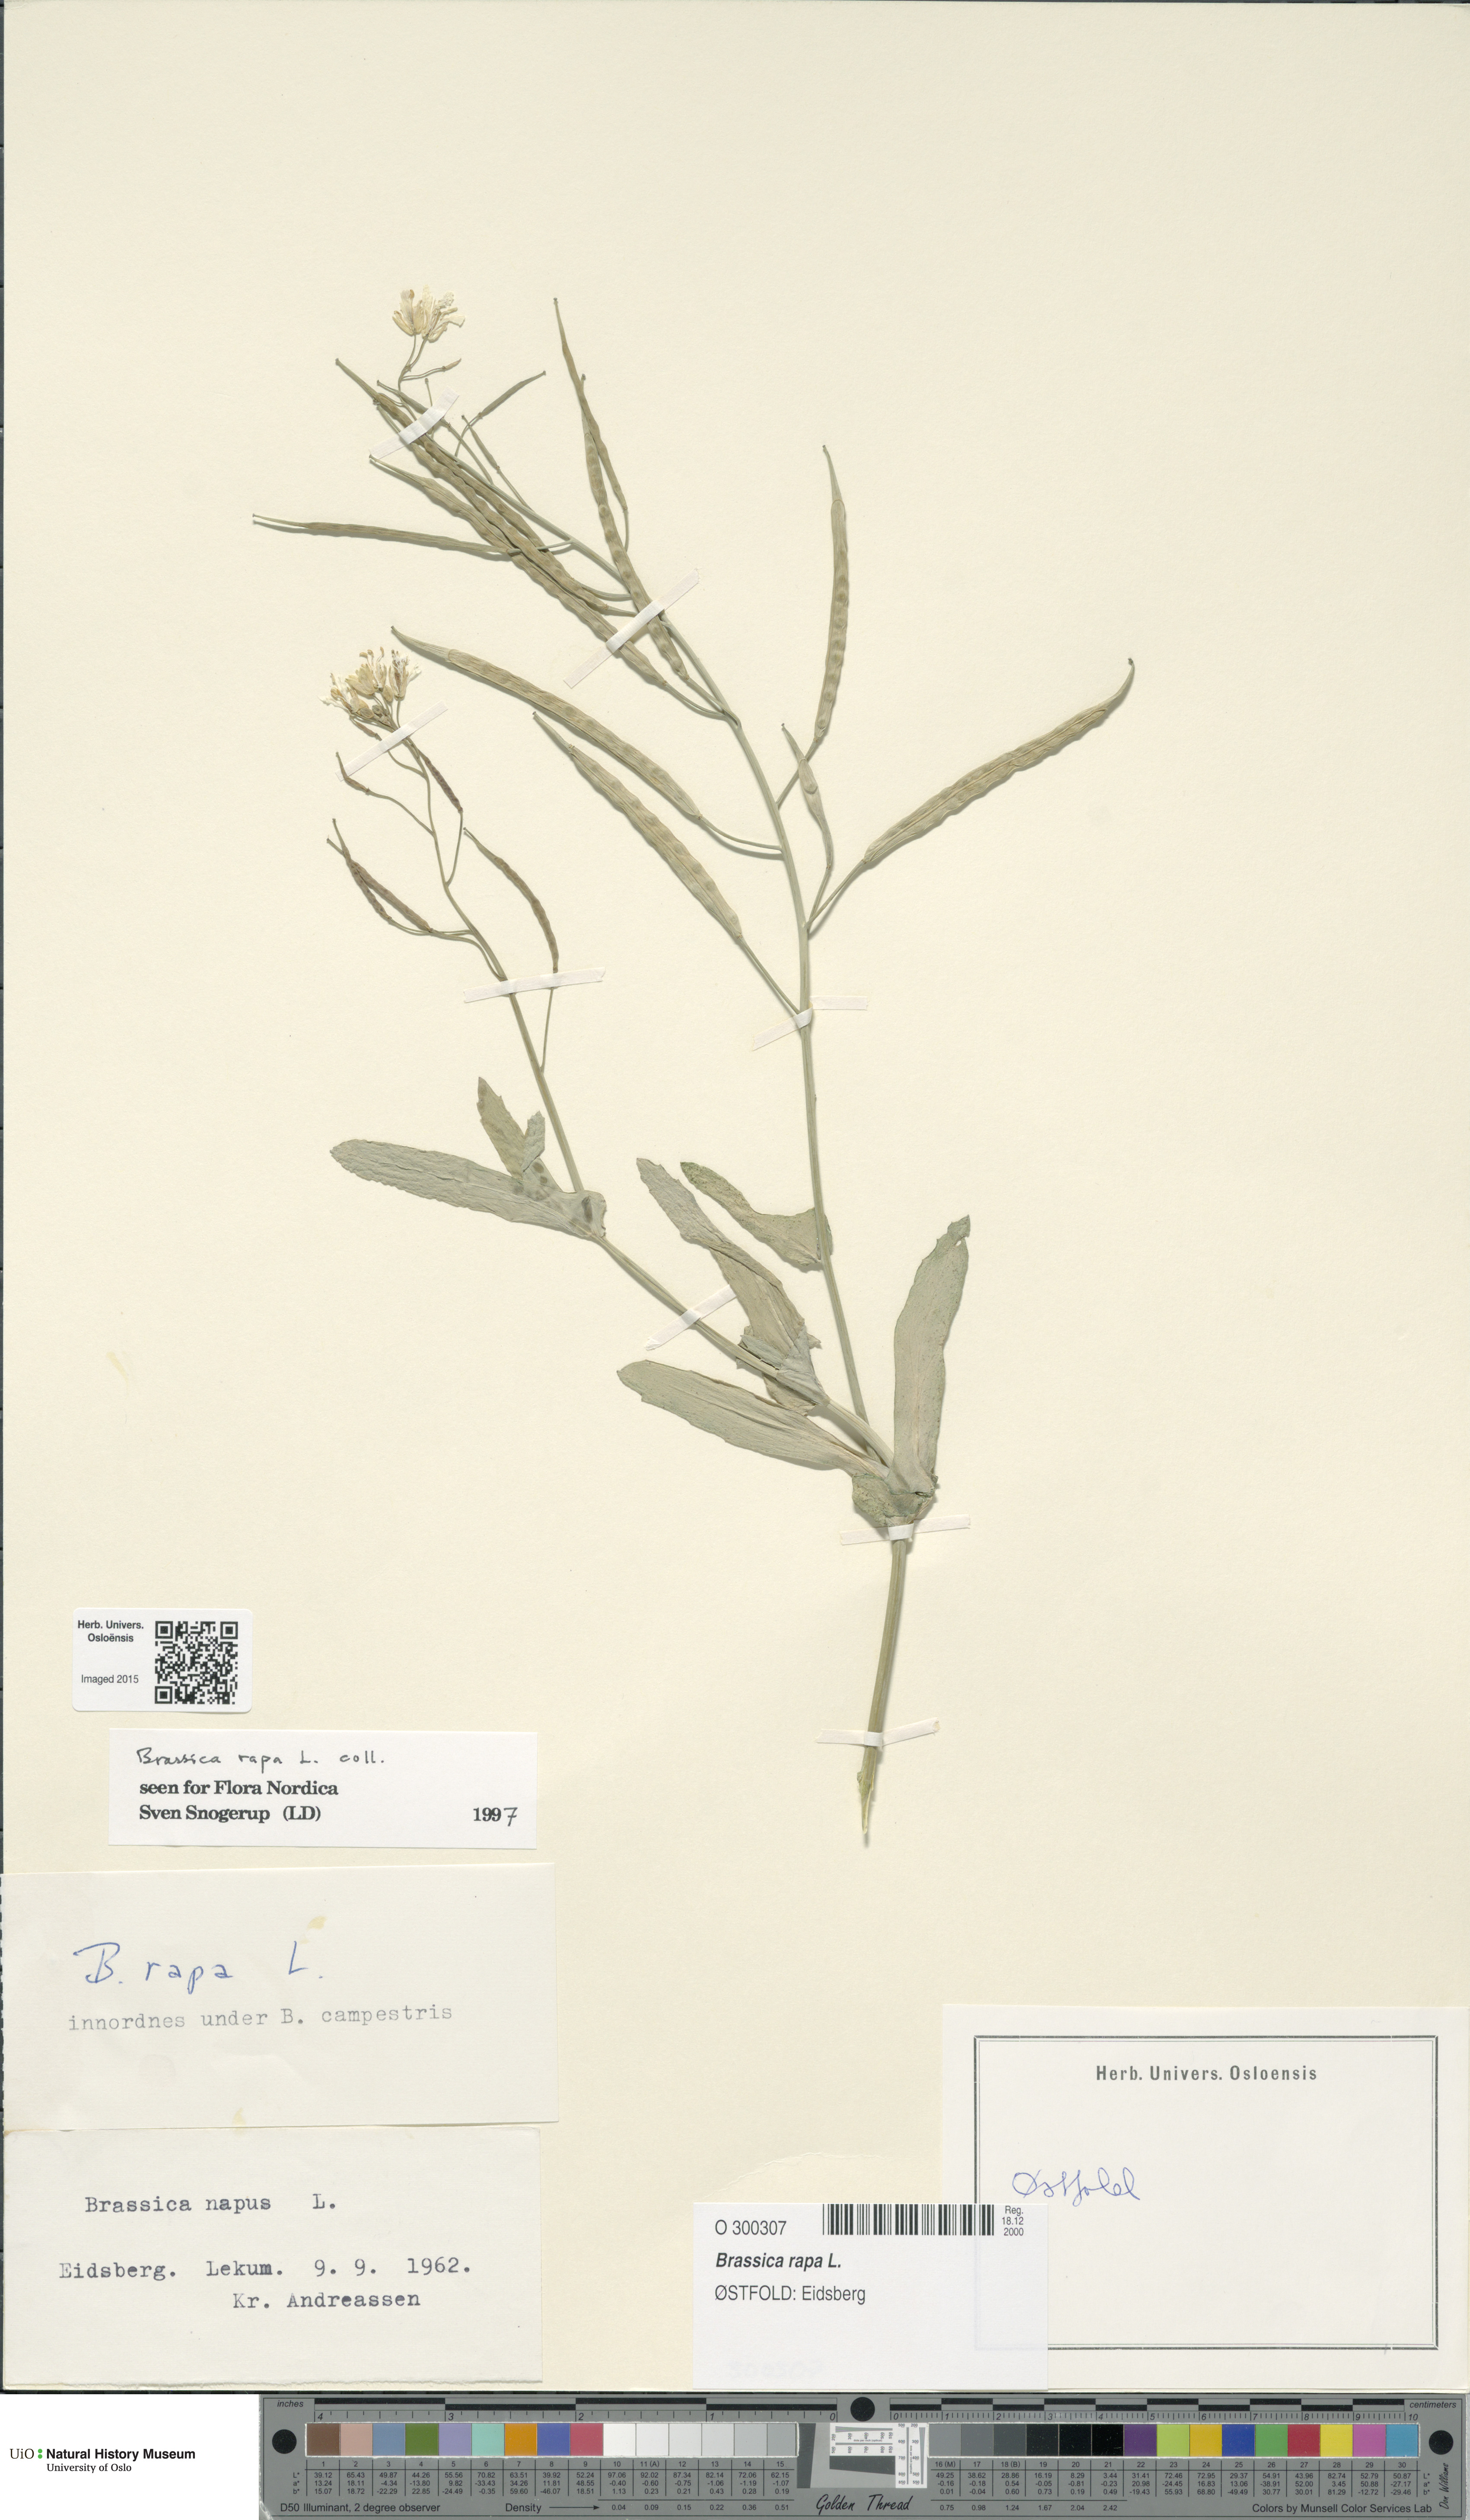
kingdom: Plantae
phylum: Tracheophyta
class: Magnoliopsida
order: Brassicales
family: Brassicaceae
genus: Brassica
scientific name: Brassica rapa
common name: Field mustard
